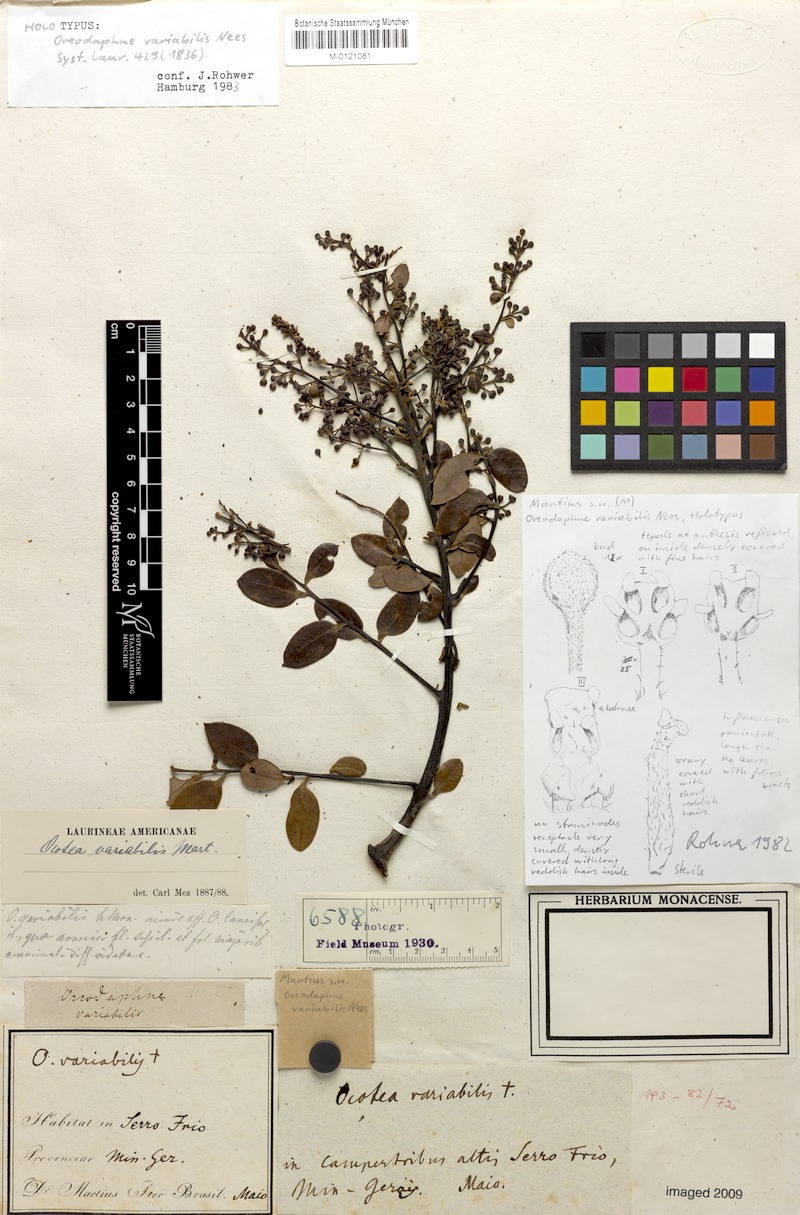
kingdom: Plantae
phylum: Tracheophyta
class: Magnoliopsida
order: Laurales
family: Lauraceae
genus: Ocotea
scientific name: Ocotea lancifolia
